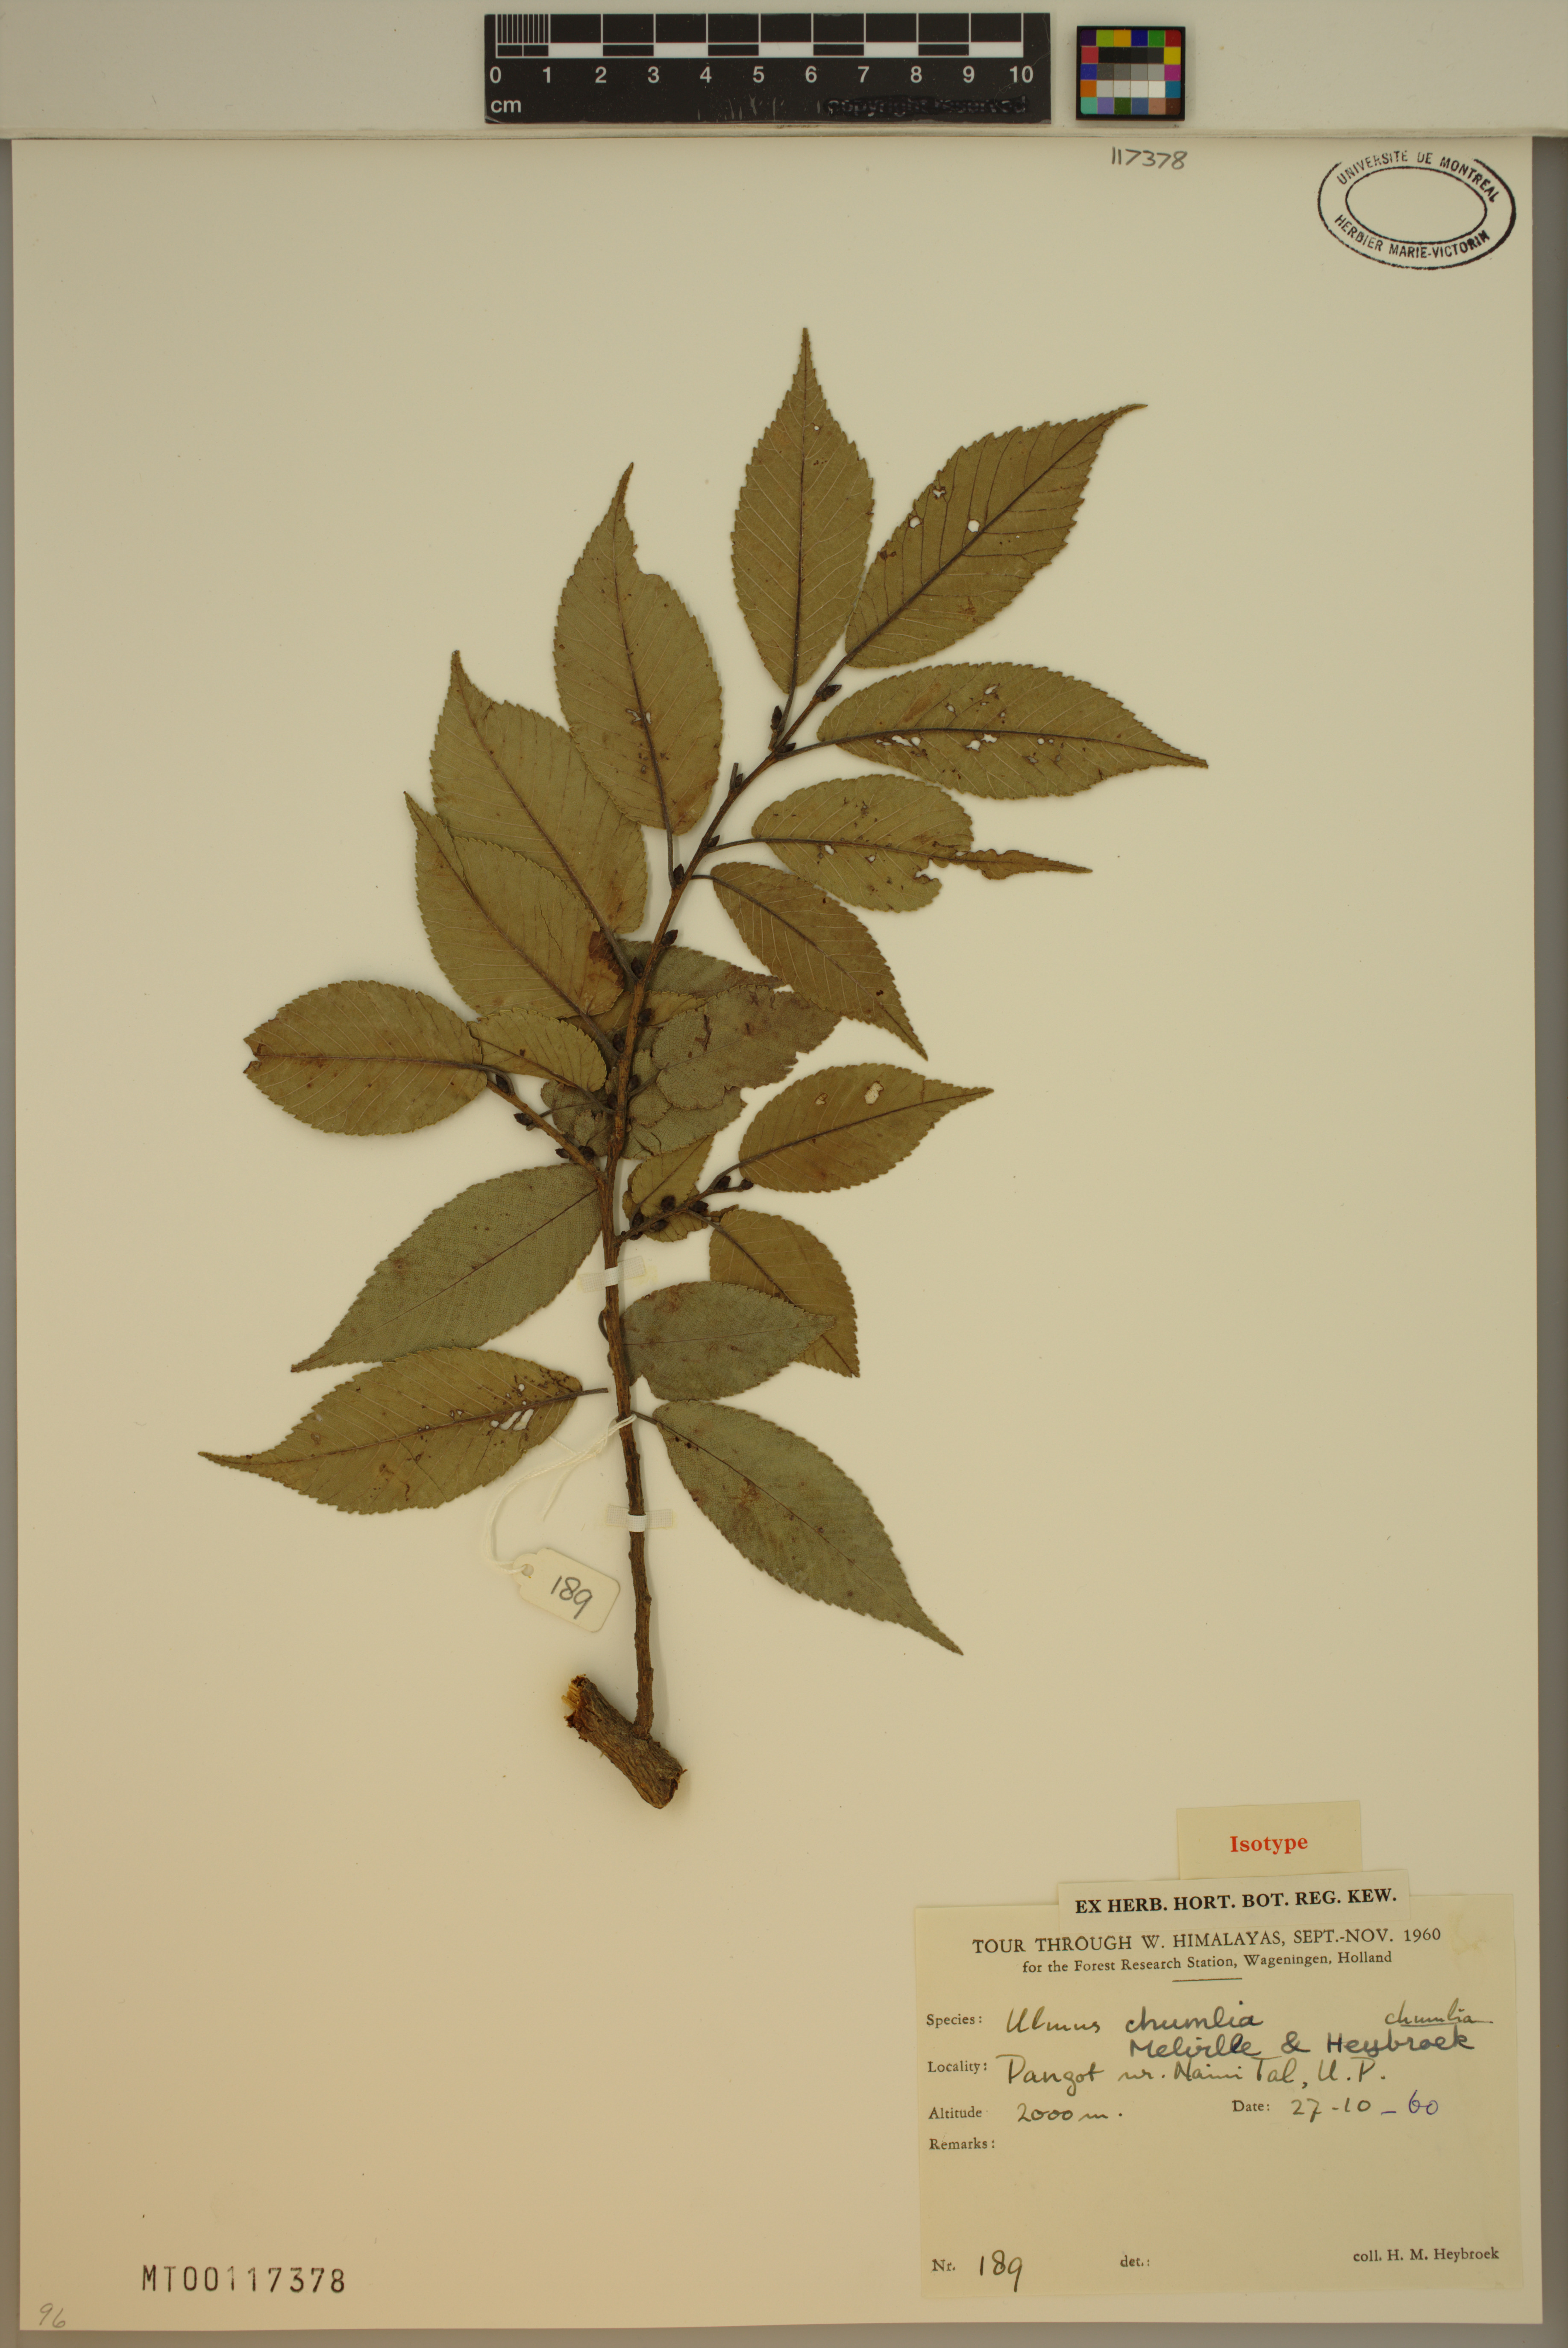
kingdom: Plantae
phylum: Tracheophyta
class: Magnoliopsida
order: Rosales
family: Ulmaceae
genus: Ulmus
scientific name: Ulmus chumlia
